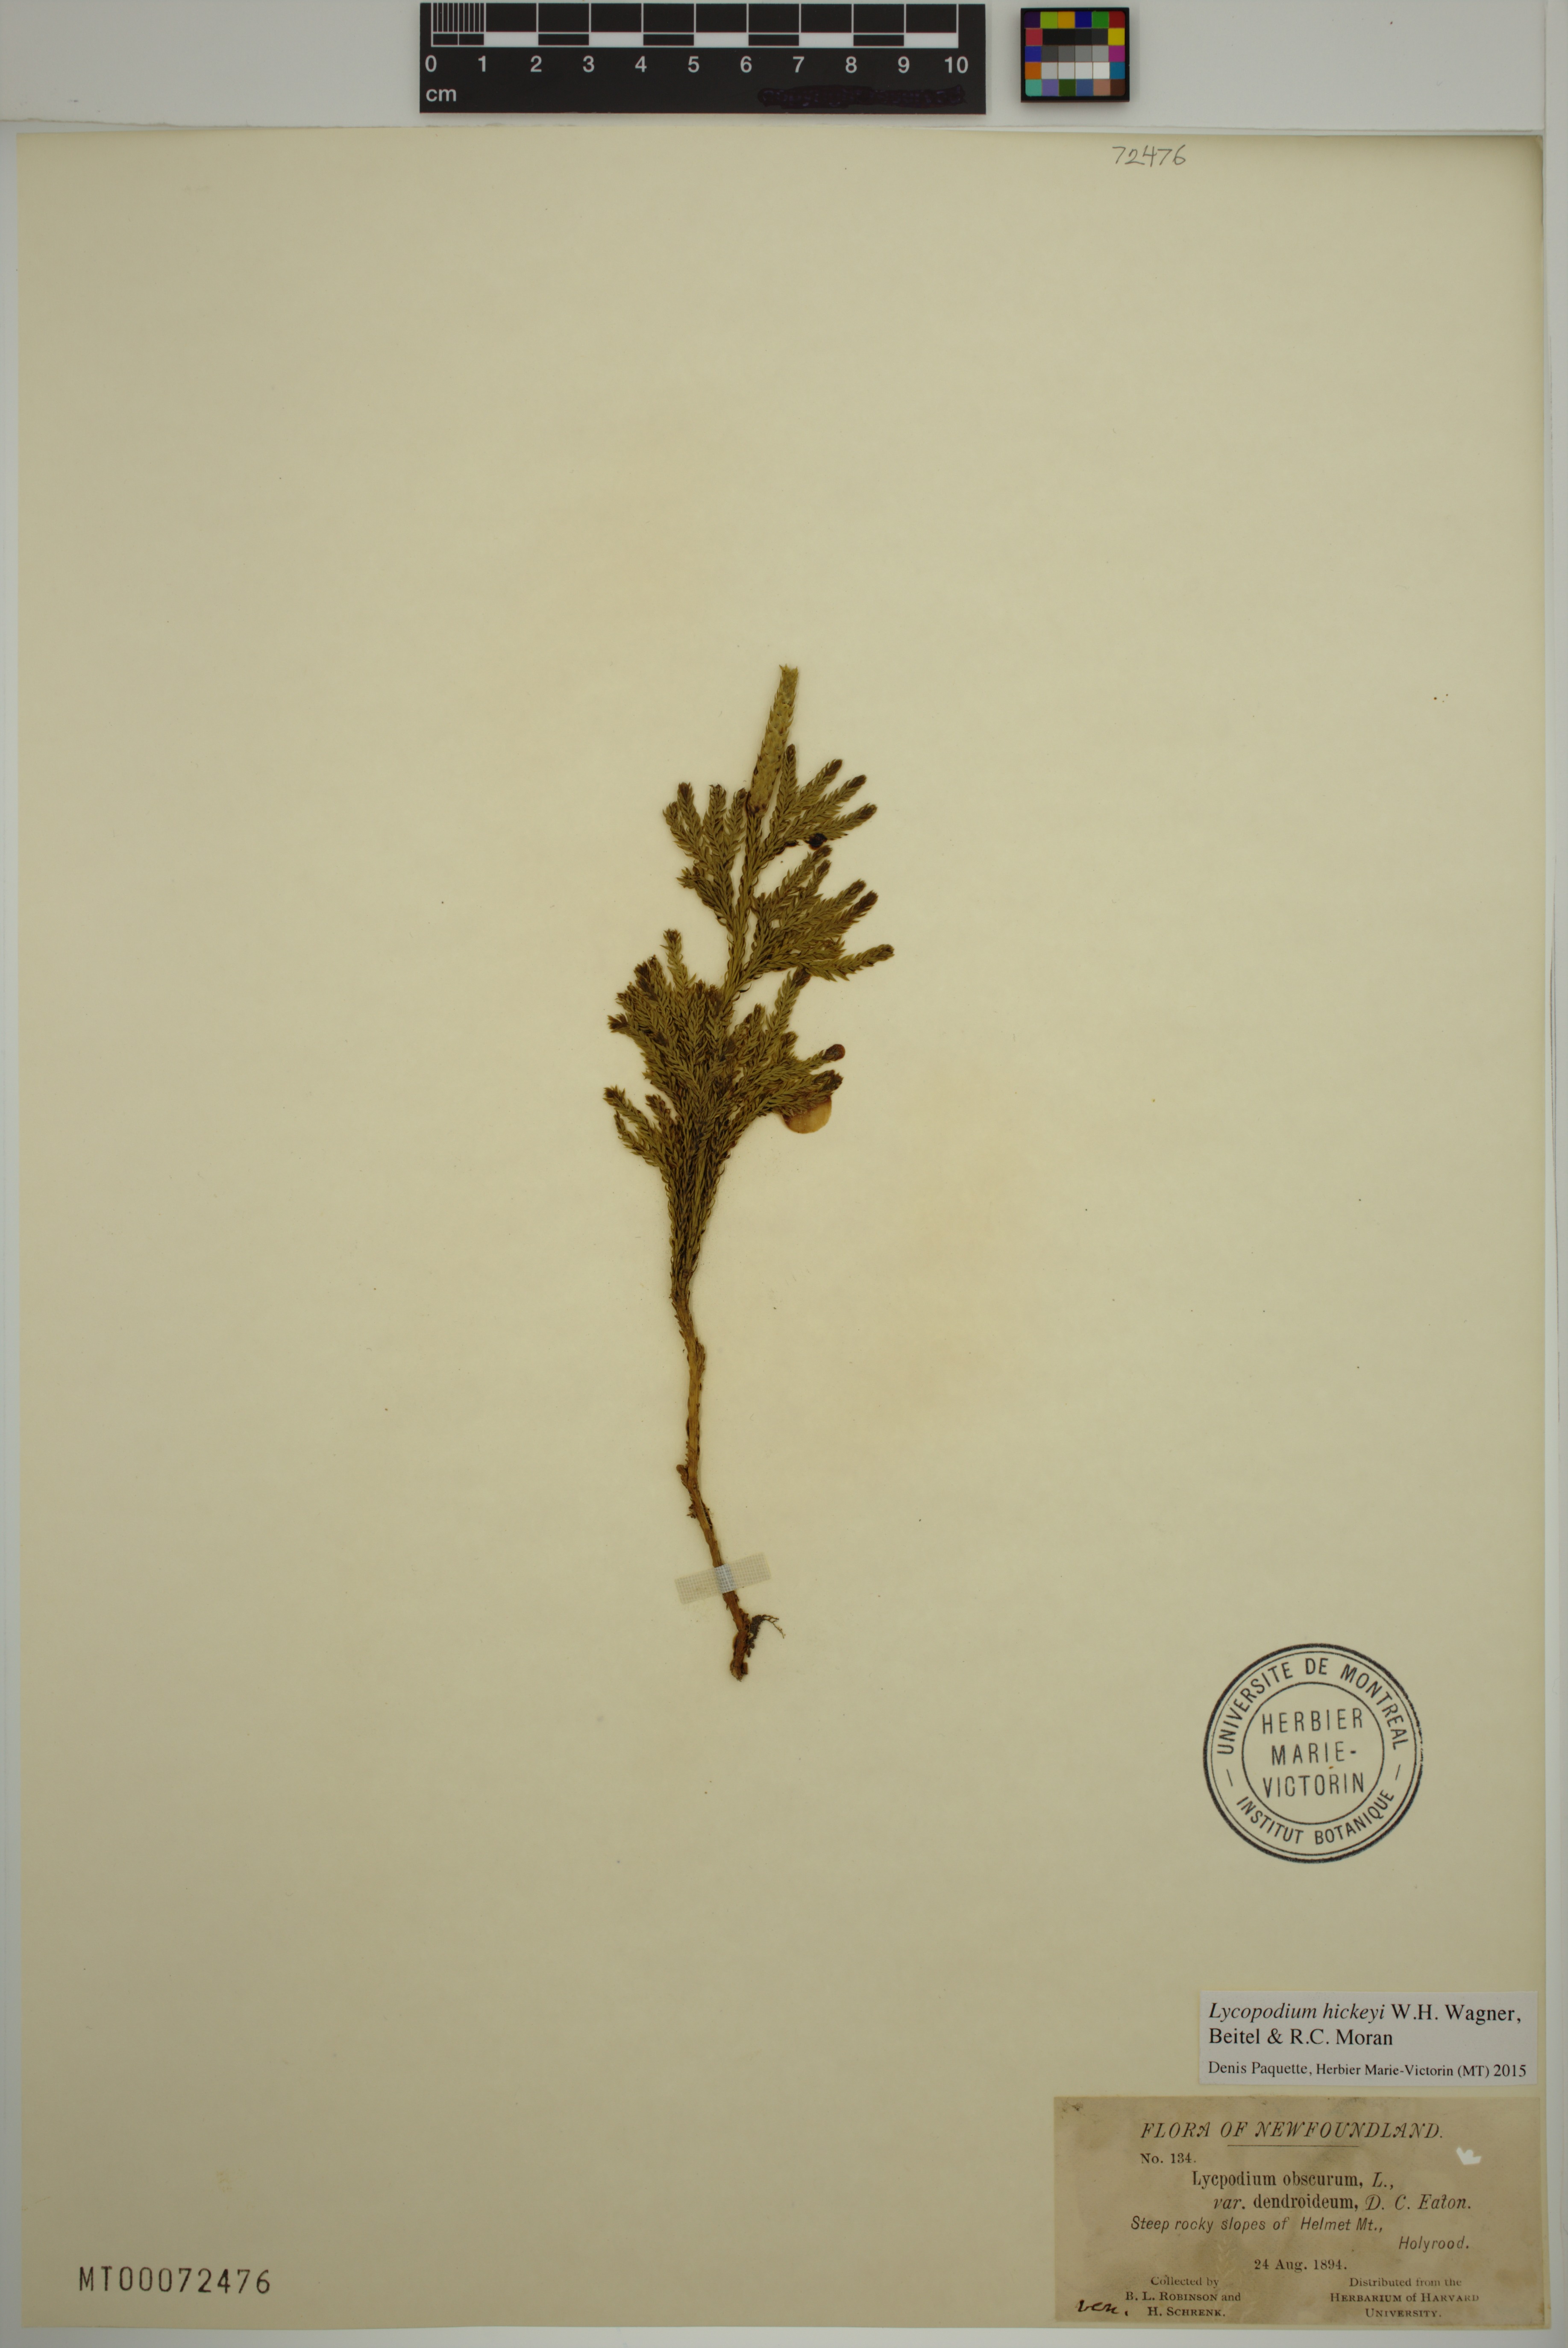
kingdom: Plantae
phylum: Tracheophyta
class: Lycopodiopsida
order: Lycopodiales
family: Lycopodiaceae
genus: Dendrolycopodium
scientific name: Dendrolycopodium hickeyi
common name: Hickey's clubmoss
